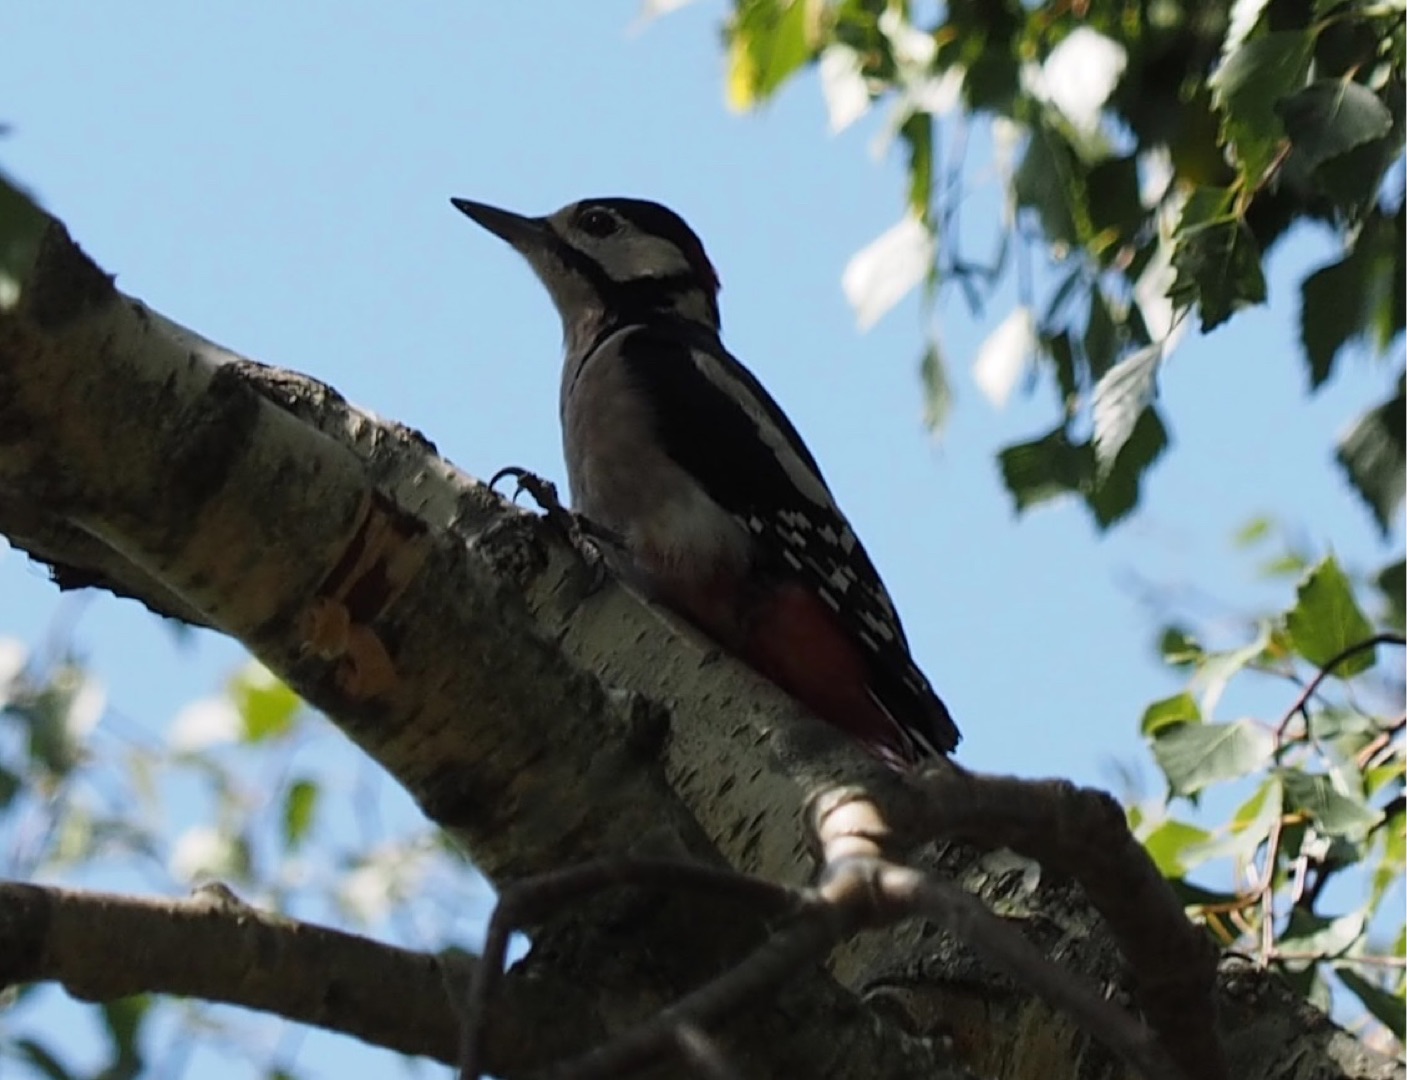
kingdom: Animalia
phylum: Chordata
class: Aves
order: Piciformes
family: Picidae
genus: Dendrocopos
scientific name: Dendrocopos major
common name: Stor flagspætte
